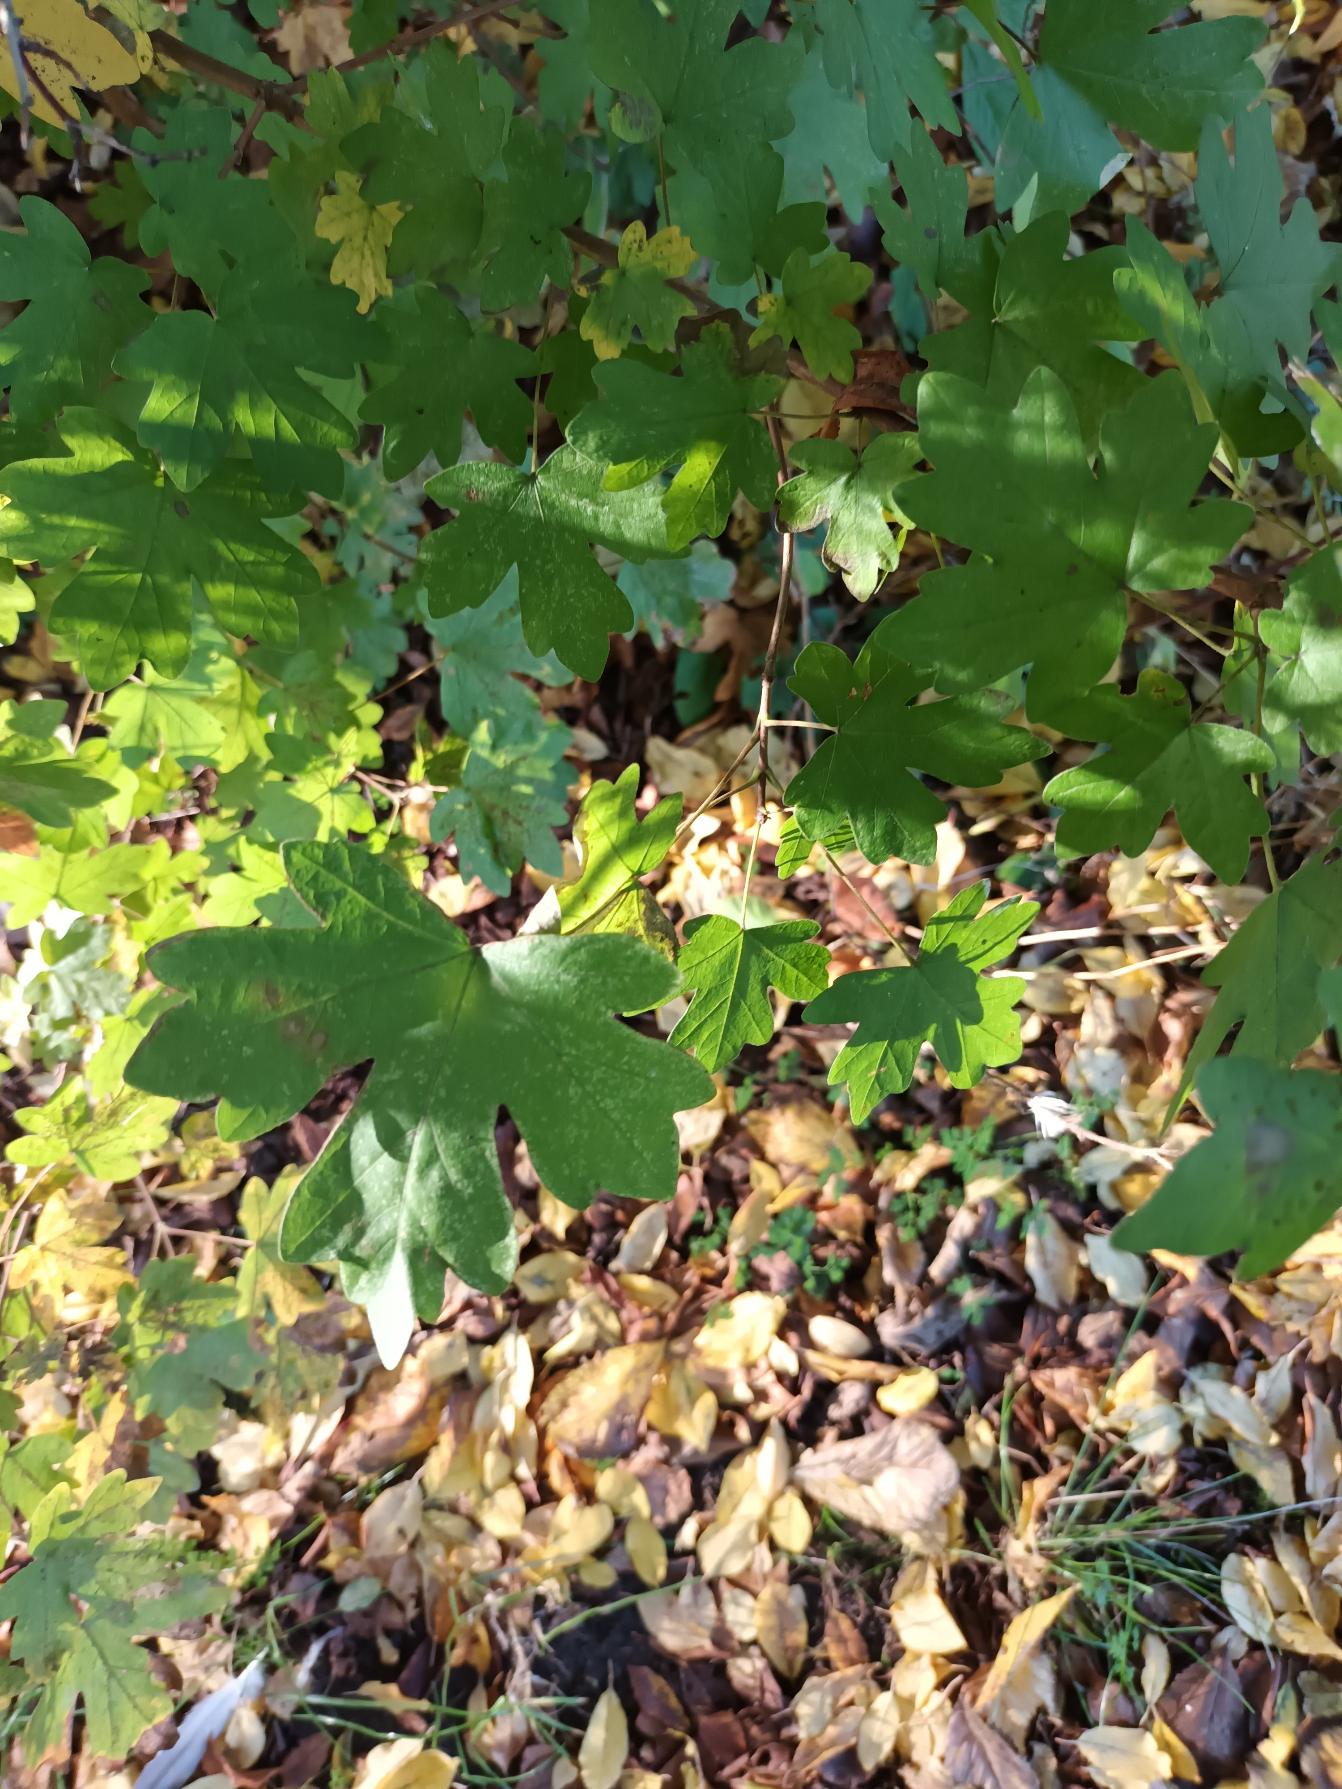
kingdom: Plantae
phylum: Tracheophyta
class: Magnoliopsida
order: Sapindales
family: Sapindaceae
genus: Acer
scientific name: Acer campestre
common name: Navr
